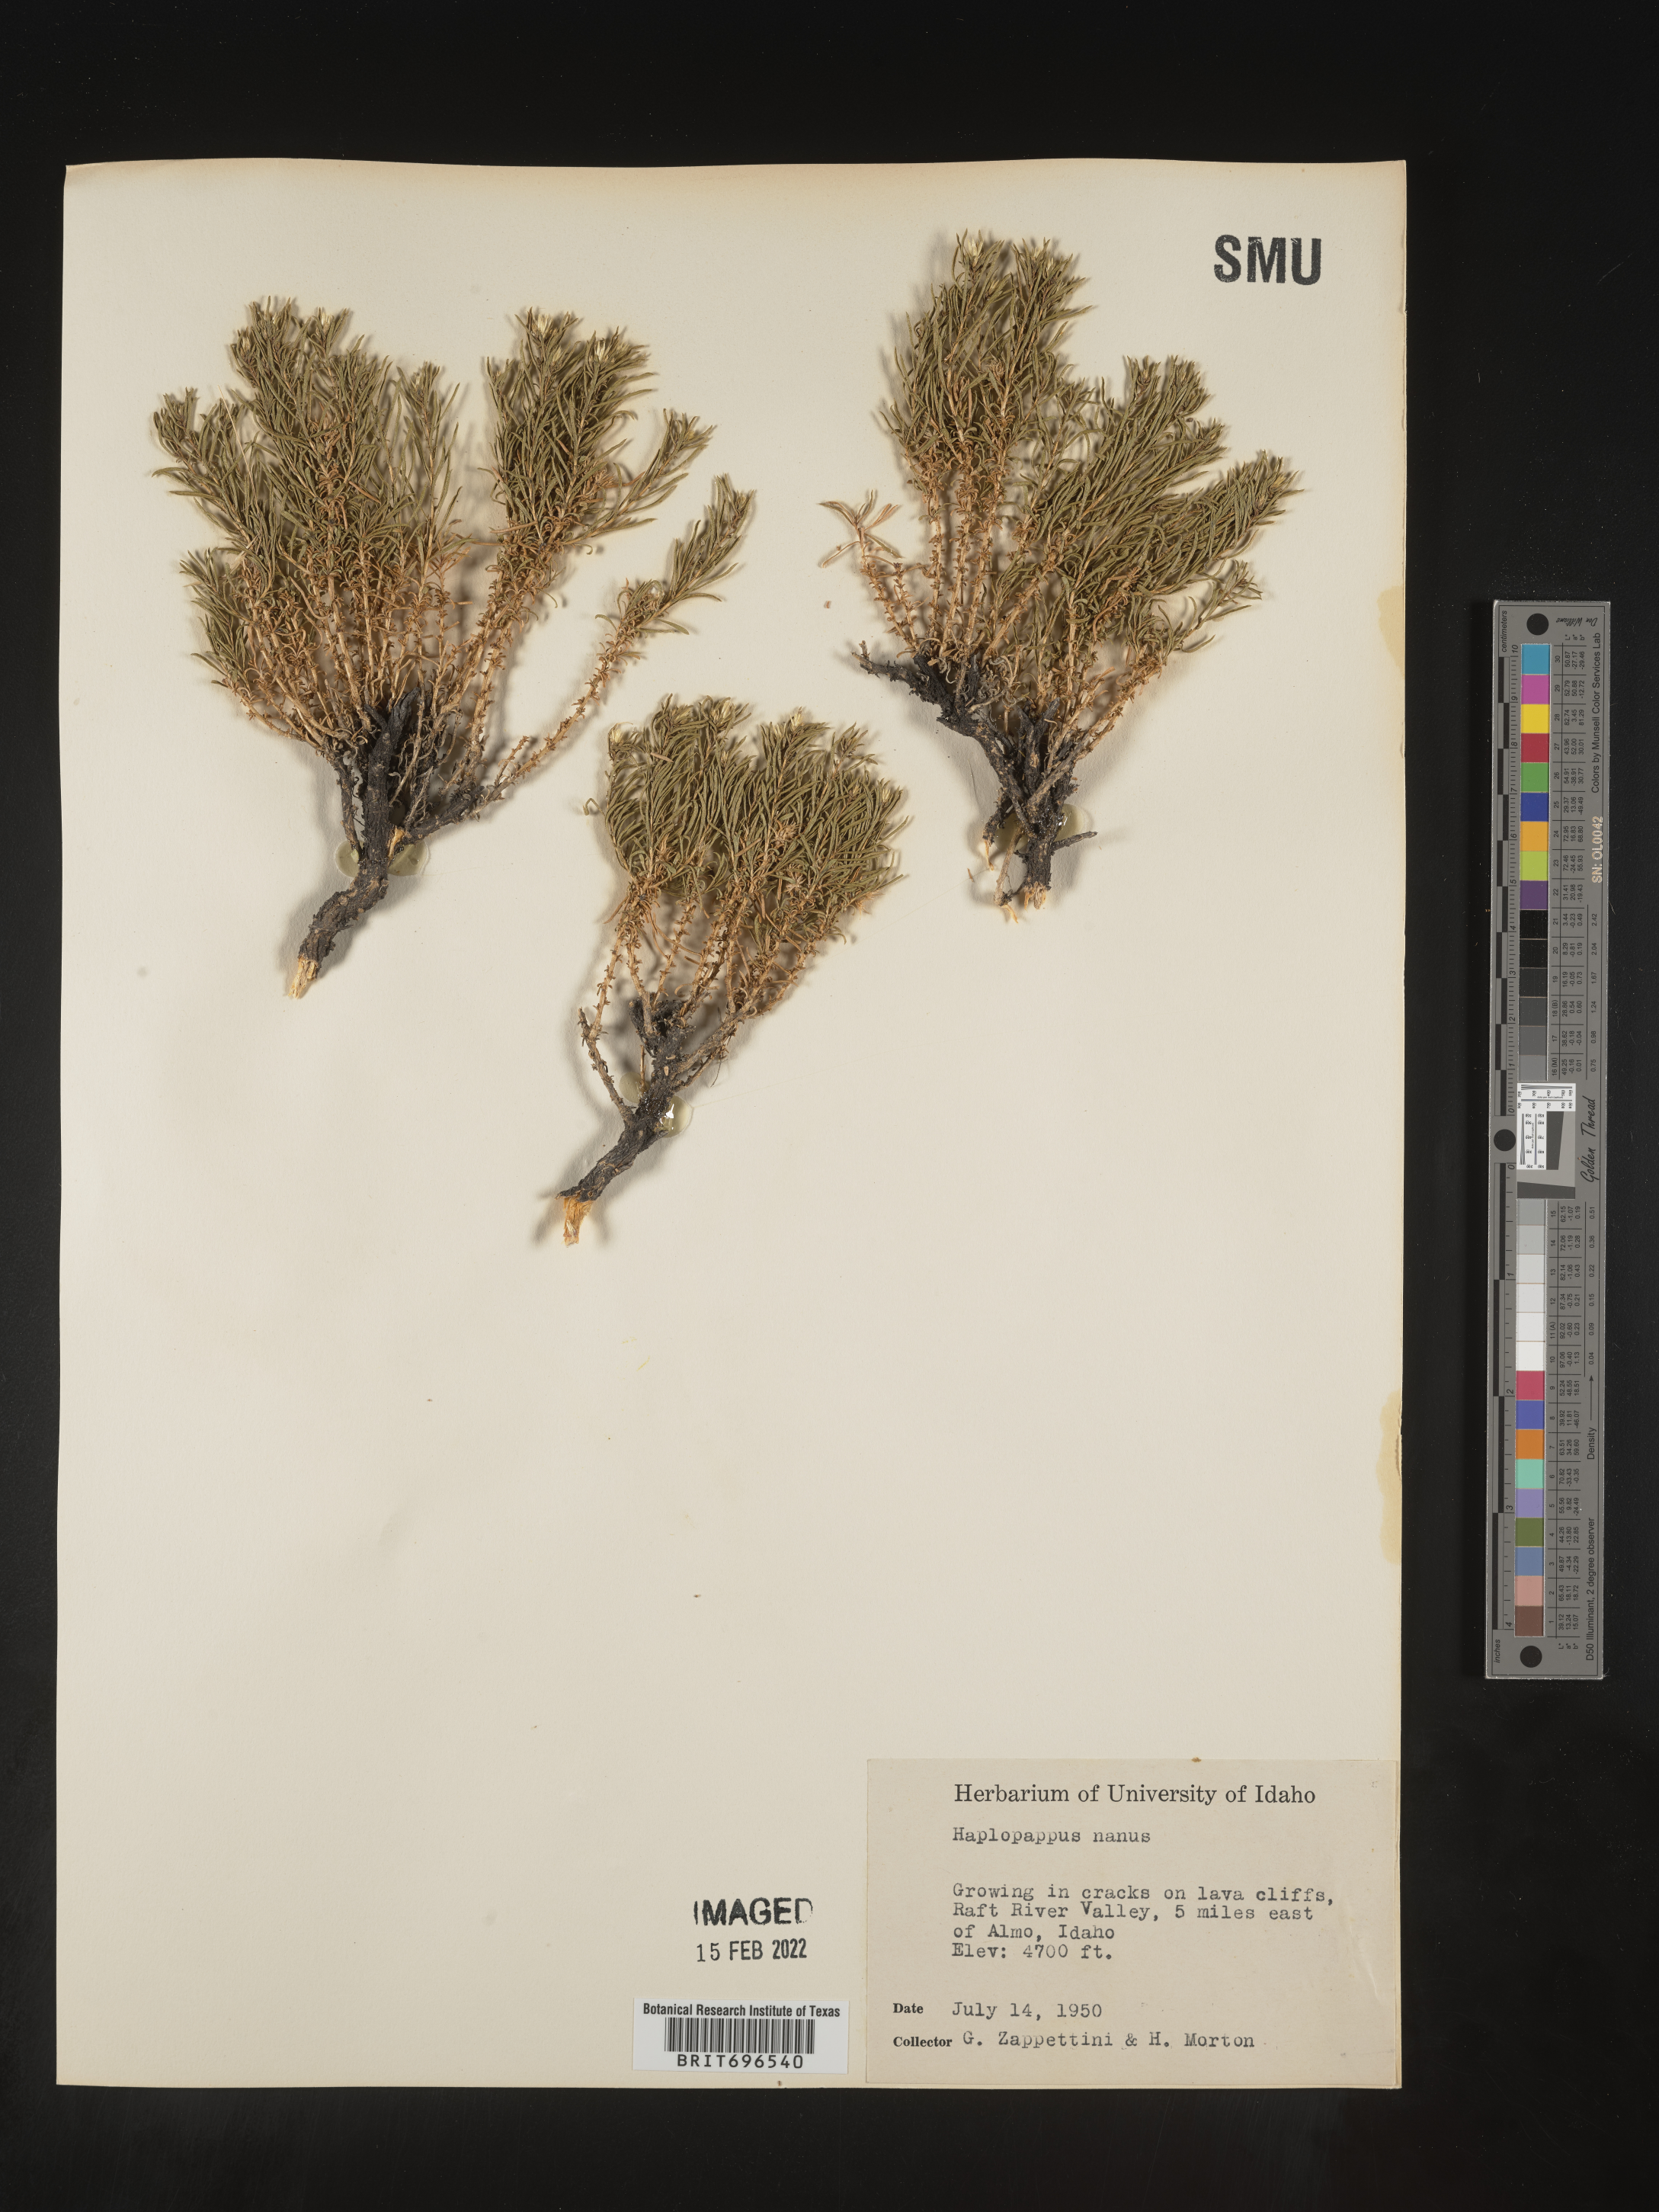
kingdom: Plantae
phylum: Tracheophyta
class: Magnoliopsida
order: Asterales
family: Asteraceae
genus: Ericameria
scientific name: Ericameria nana
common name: Dwarf goldenbush
